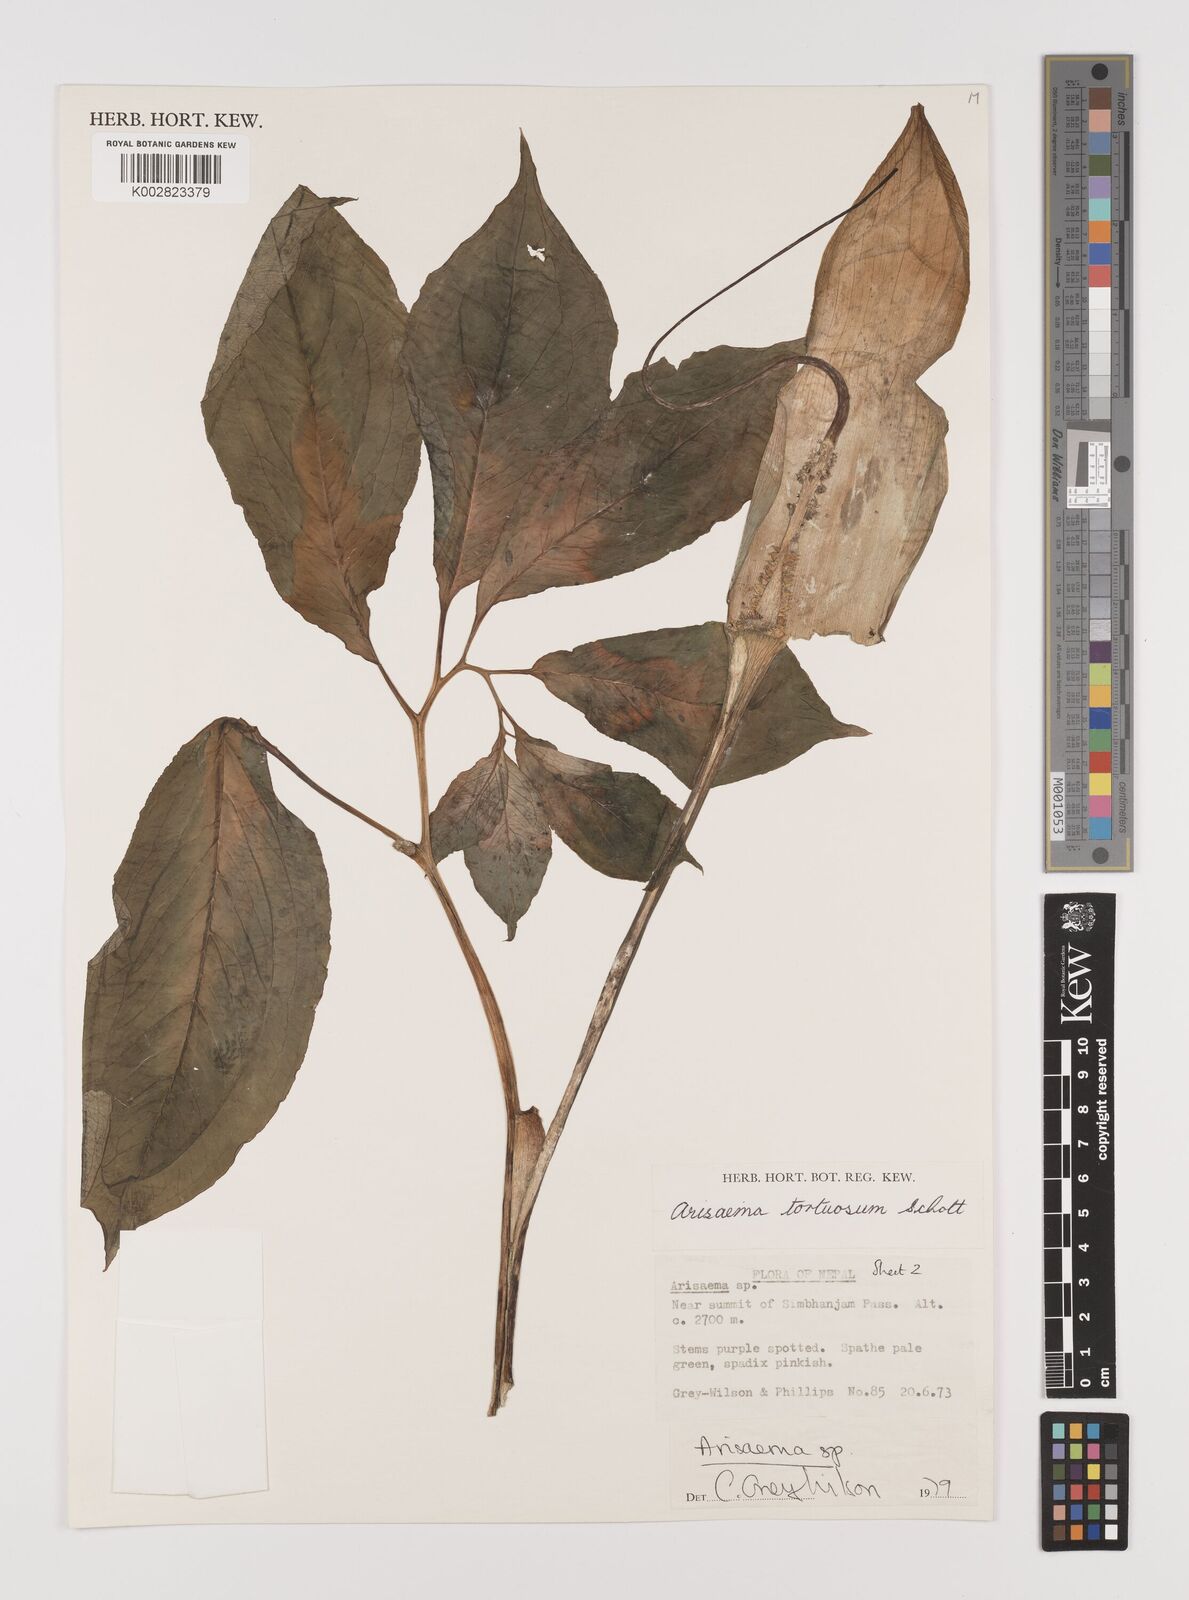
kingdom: Plantae
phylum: Tracheophyta
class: Liliopsida
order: Alismatales
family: Araceae
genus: Arisaema
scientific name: Arisaema tortuosum
